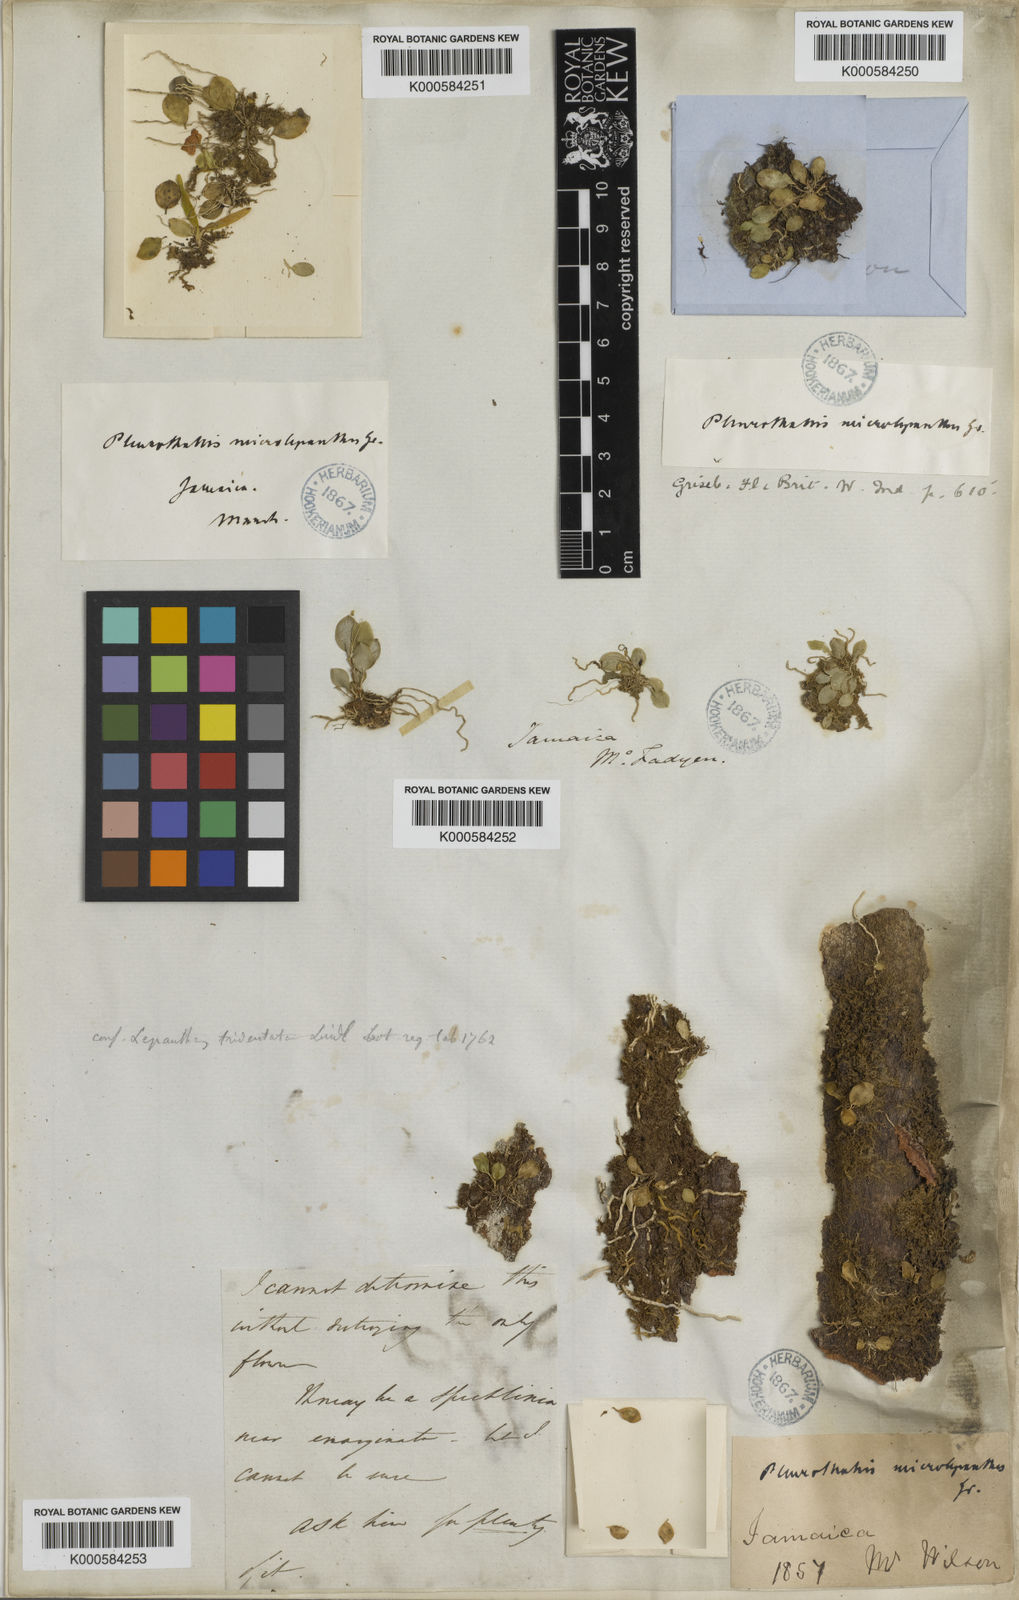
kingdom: Plantae
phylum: Tracheophyta
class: Liliopsida
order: Asparagales
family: Orchidaceae
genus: Lepanthopsis
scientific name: Lepanthopsis microlepanthes
